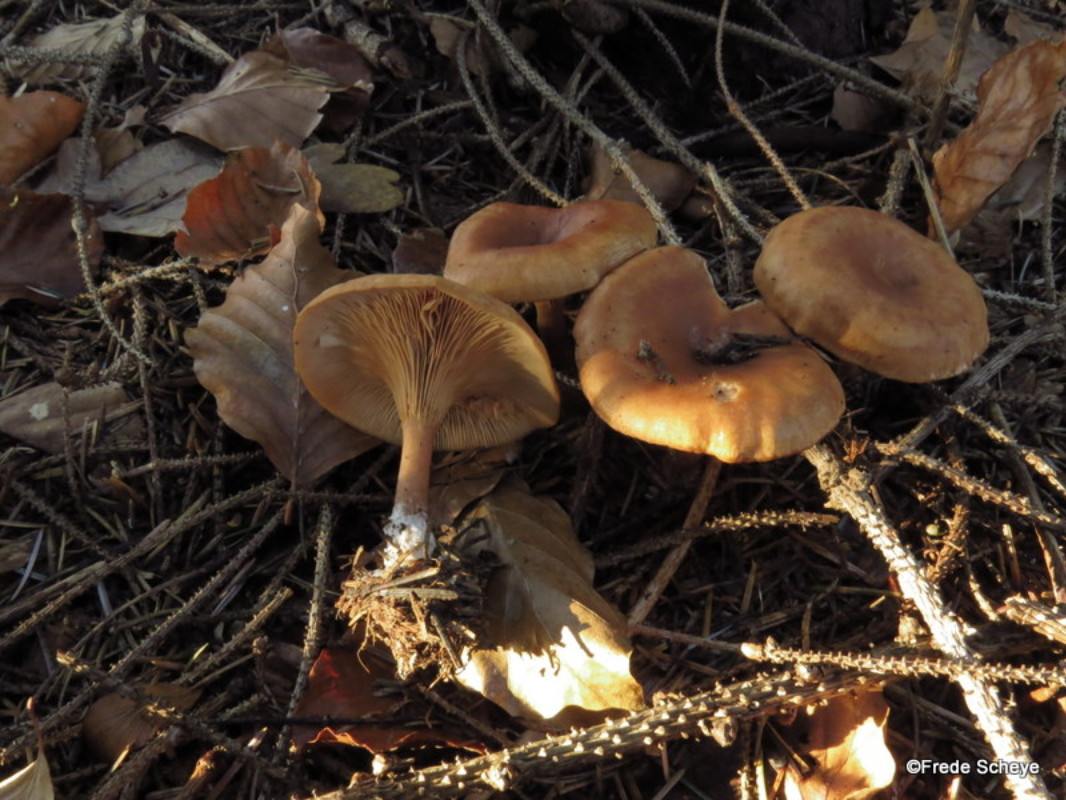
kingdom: Fungi
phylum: Basidiomycota
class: Agaricomycetes
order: Agaricales
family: Tricholomataceae
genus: Paralepista
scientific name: Paralepista flaccida
